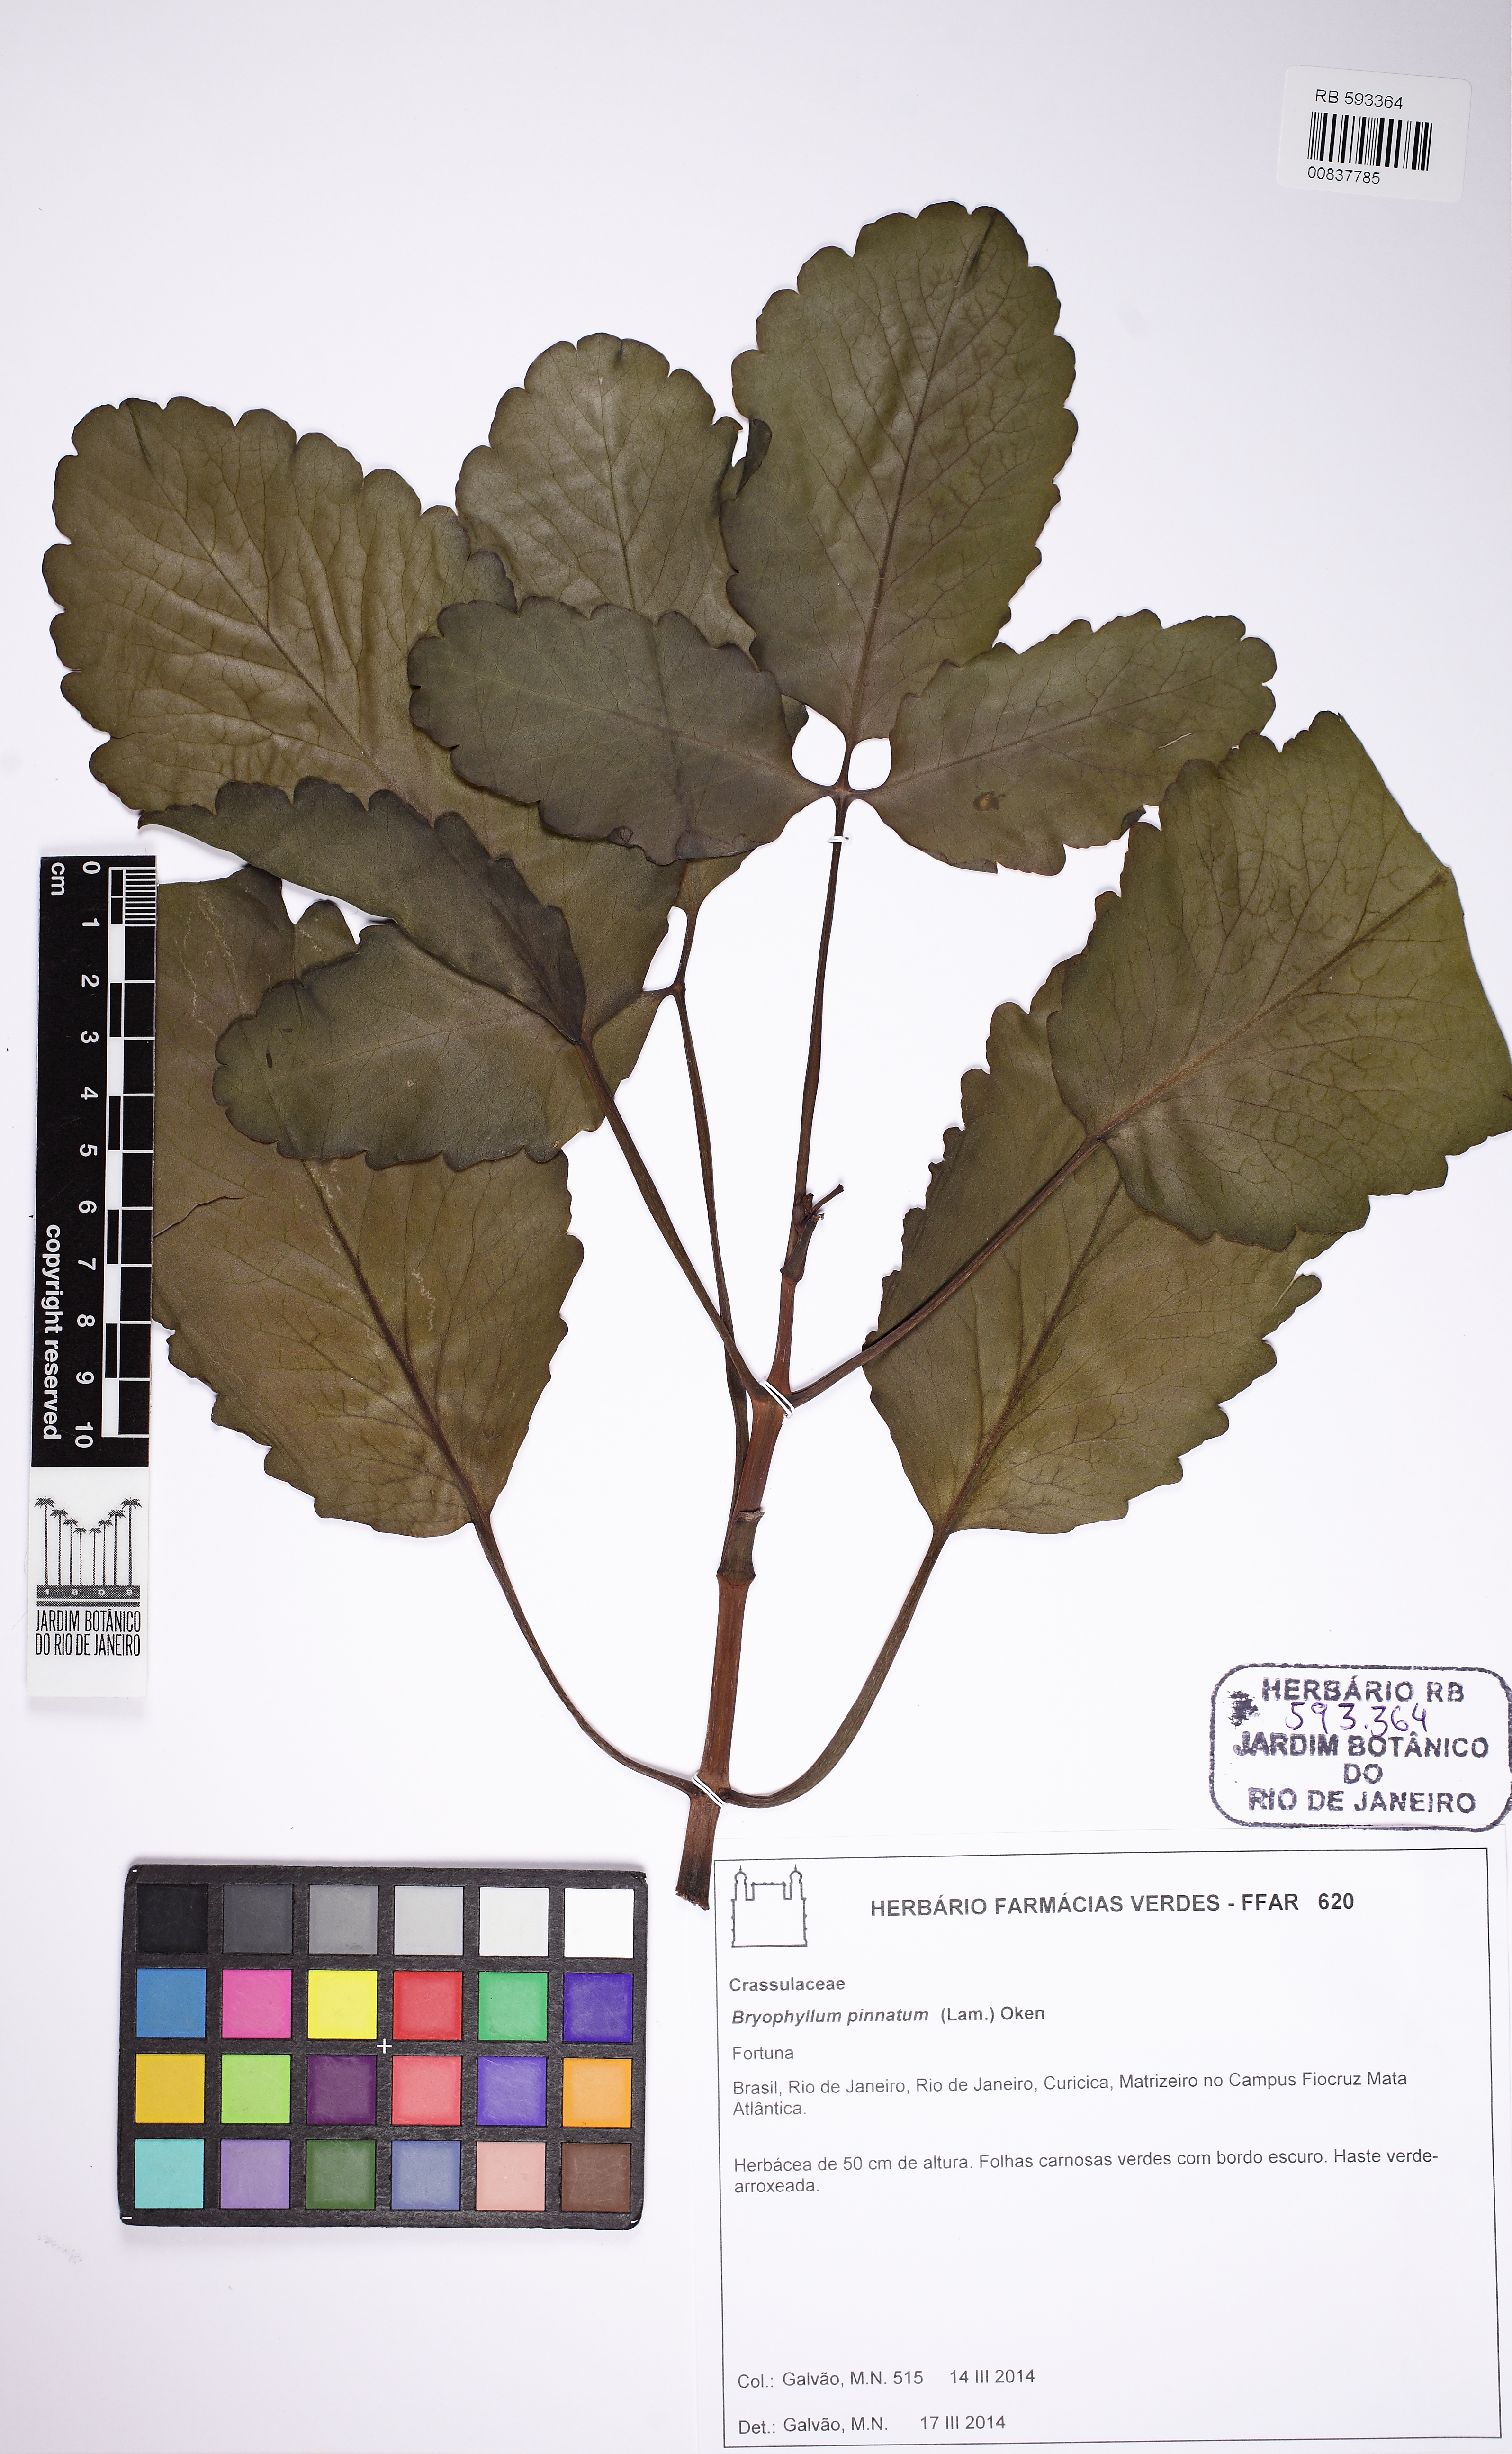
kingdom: Plantae
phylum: Tracheophyta
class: Magnoliopsida
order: Saxifragales
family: Crassulaceae
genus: Kalanchoe
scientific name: Kalanchoe pinnata
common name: Cathedral bells
